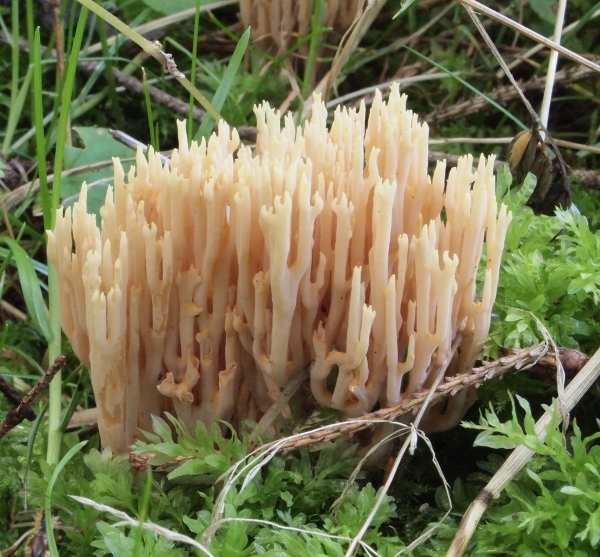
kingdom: Fungi
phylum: Basidiomycota
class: Agaricomycetes
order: Gomphales
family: Gomphaceae
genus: Ramaria
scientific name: Ramaria stricta
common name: rank koralsvamp
